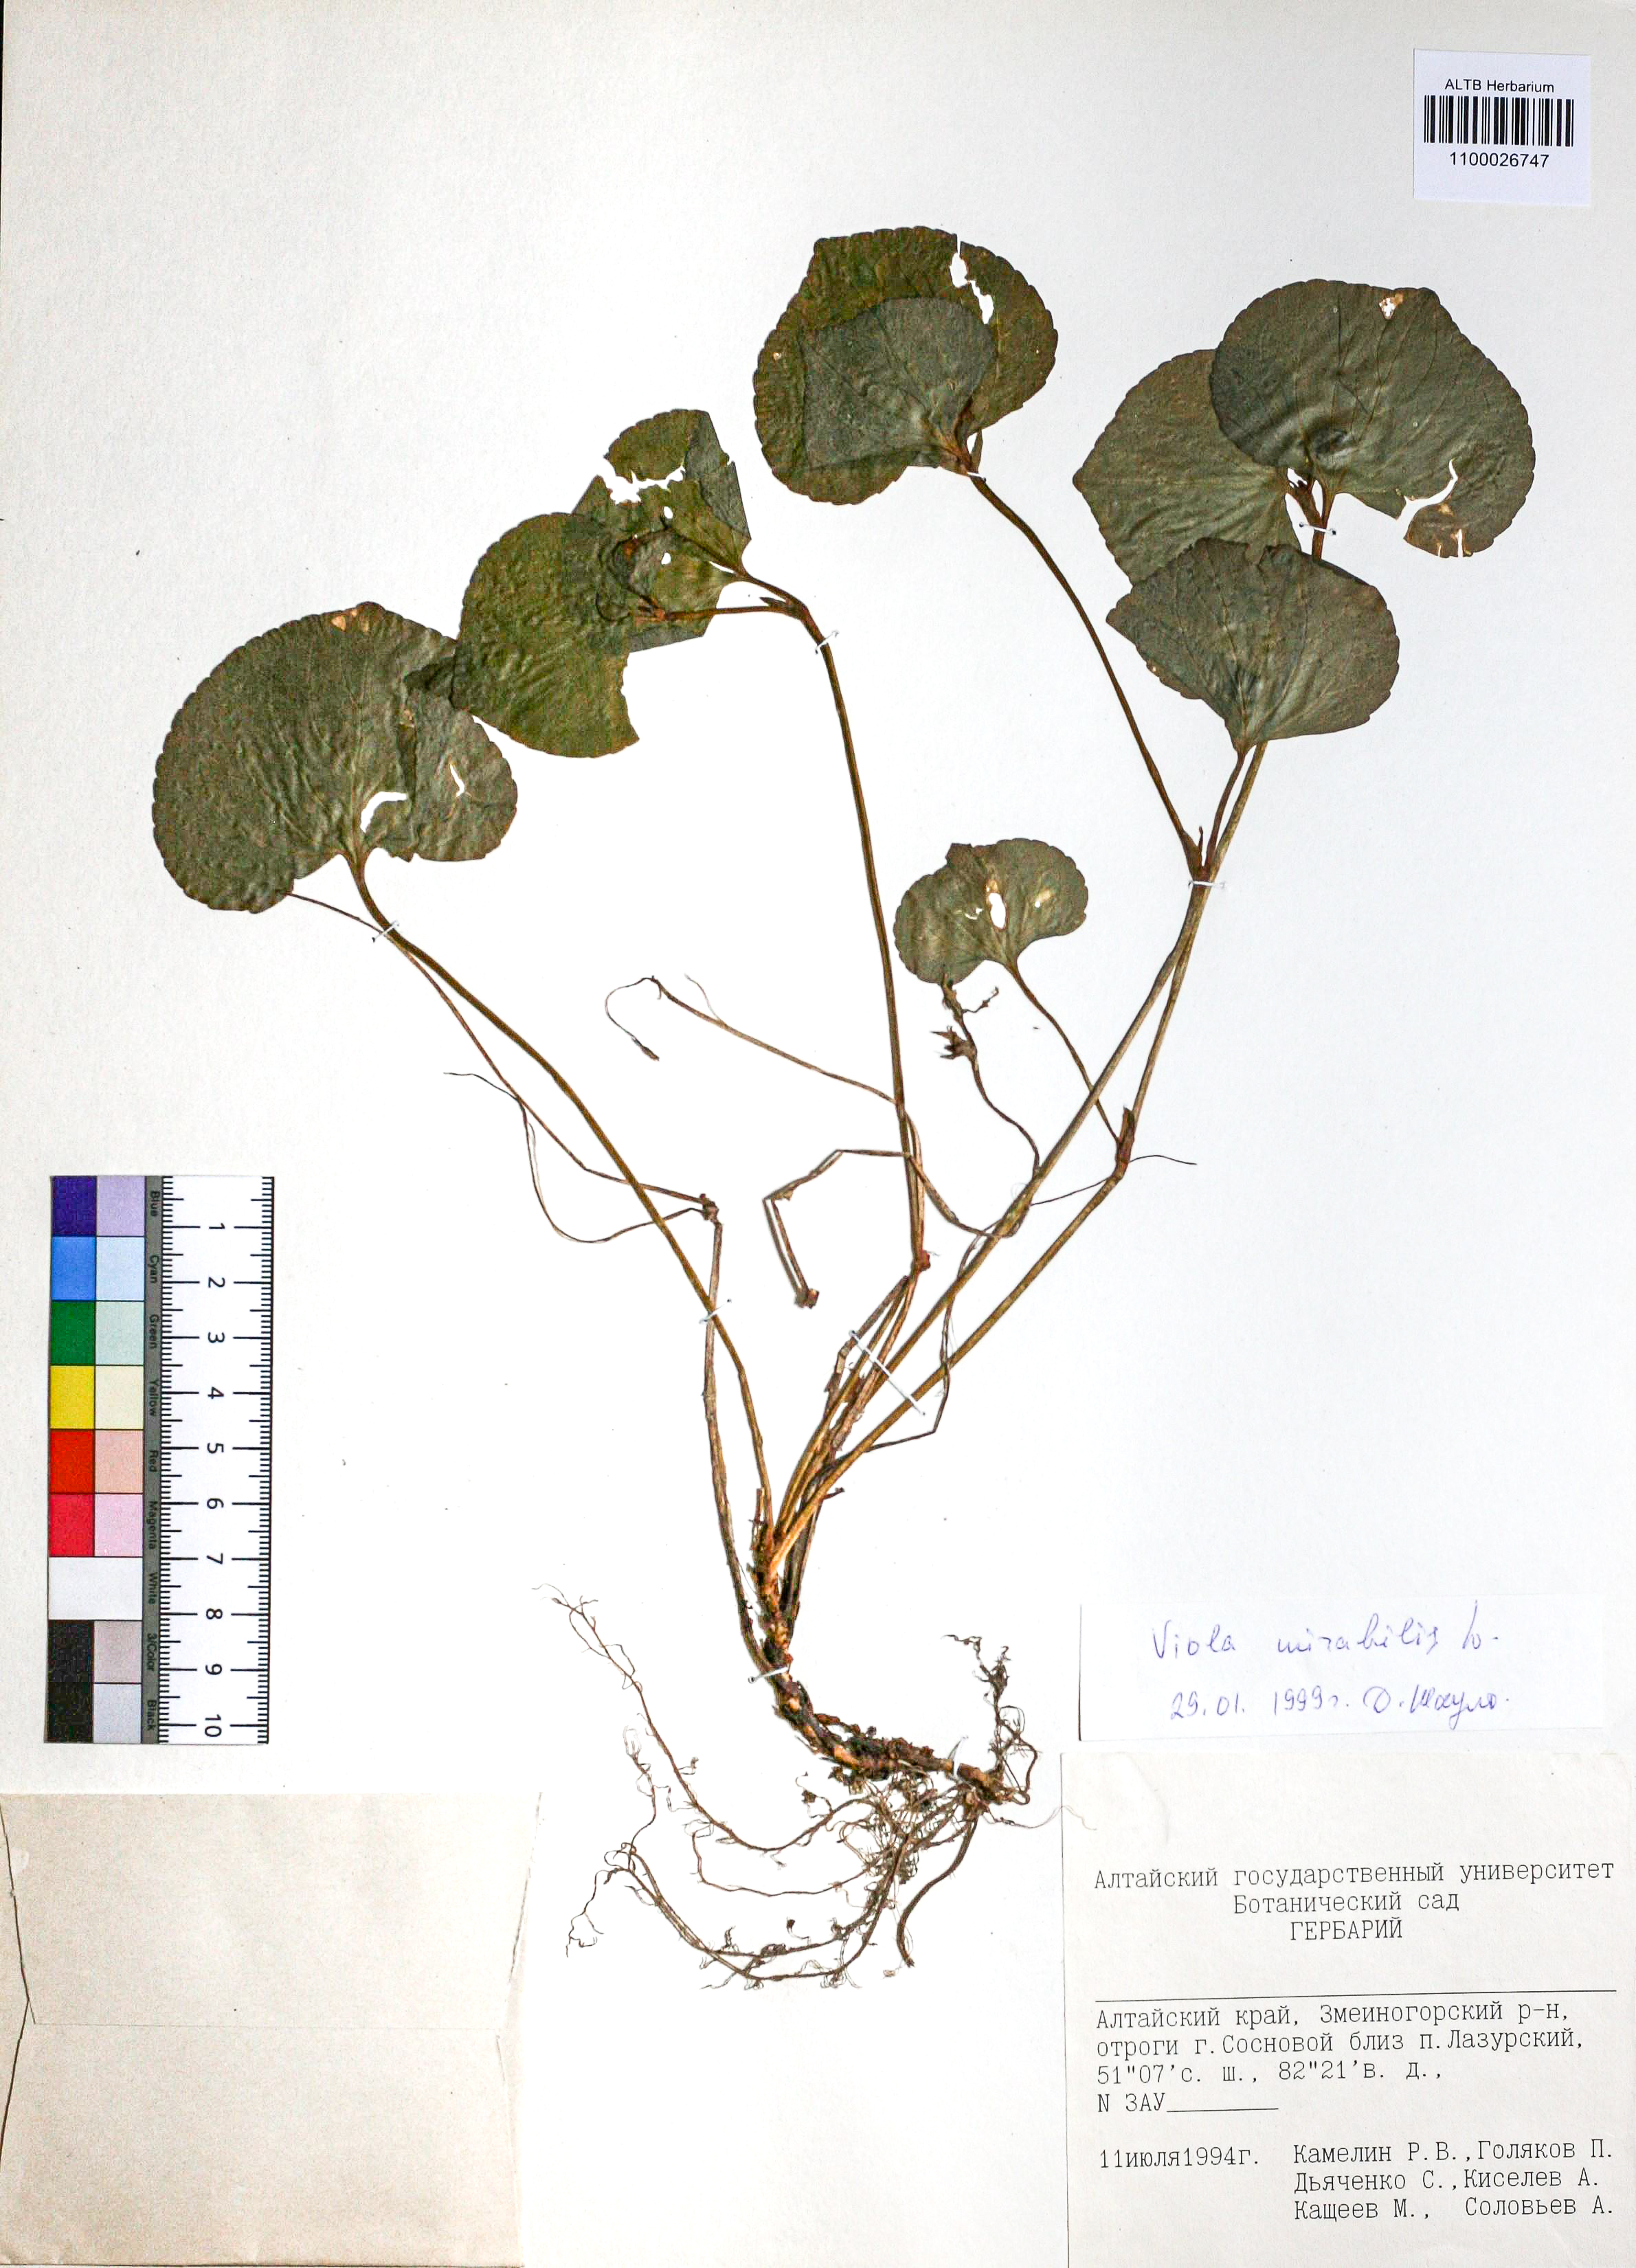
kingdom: Plantae
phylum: Tracheophyta
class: Magnoliopsida
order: Malpighiales
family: Violaceae
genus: Viola
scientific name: Viola mirabilis
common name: Wonder violet
